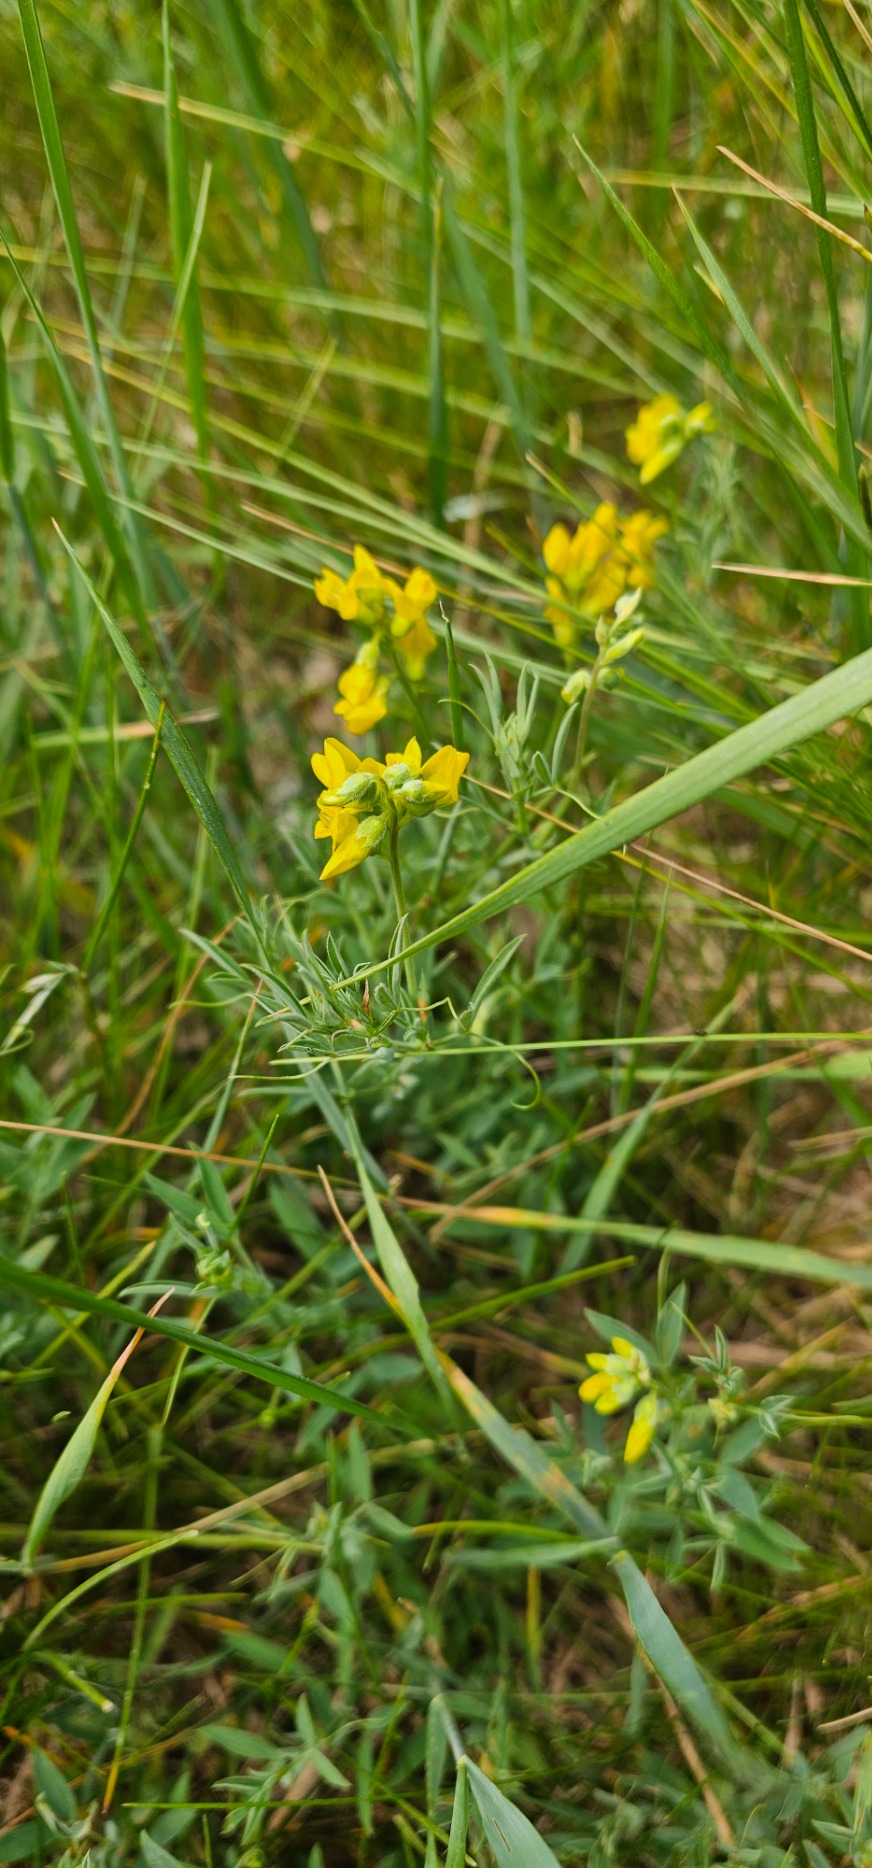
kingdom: Plantae
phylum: Tracheophyta
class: Magnoliopsida
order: Fabales
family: Fabaceae
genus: Lathyrus
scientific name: Lathyrus pratensis
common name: Gul fladbælg
